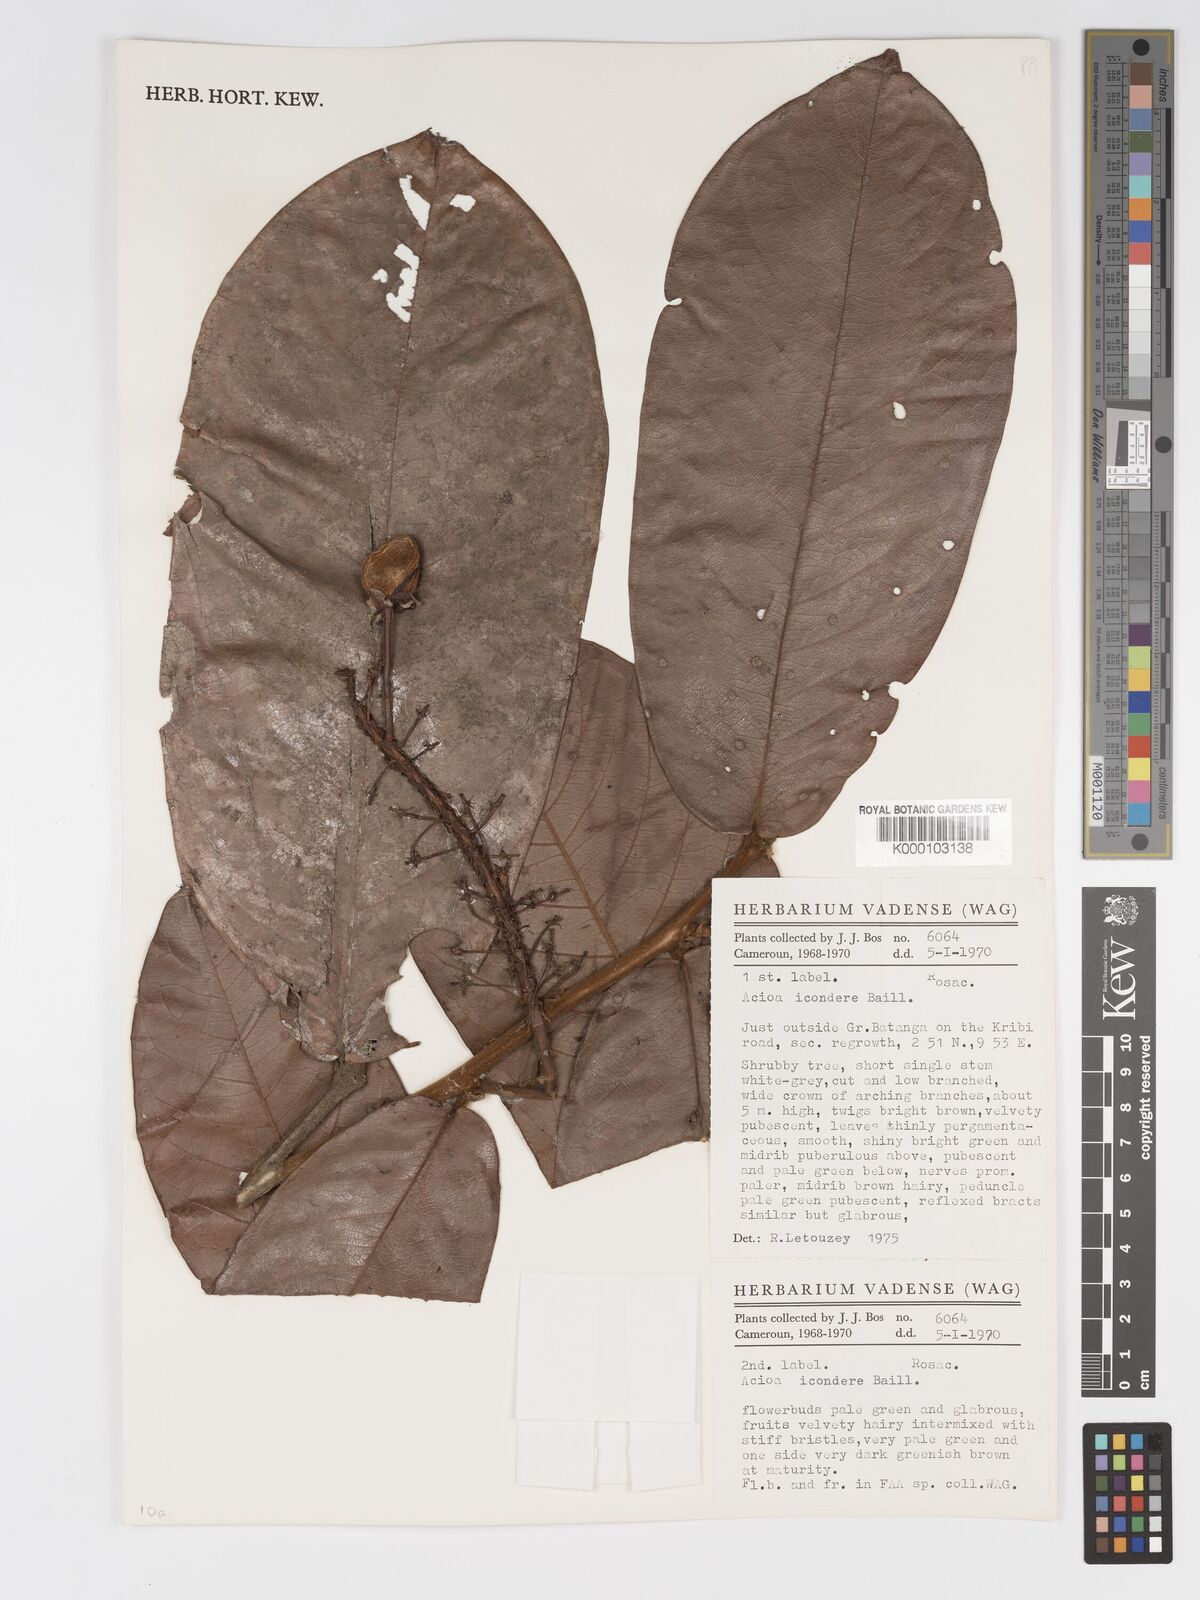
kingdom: Plantae
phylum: Tracheophyta
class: Magnoliopsida
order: Malpighiales
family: Chrysobalanaceae
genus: Dactyladenia
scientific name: Dactyladenia icondere
